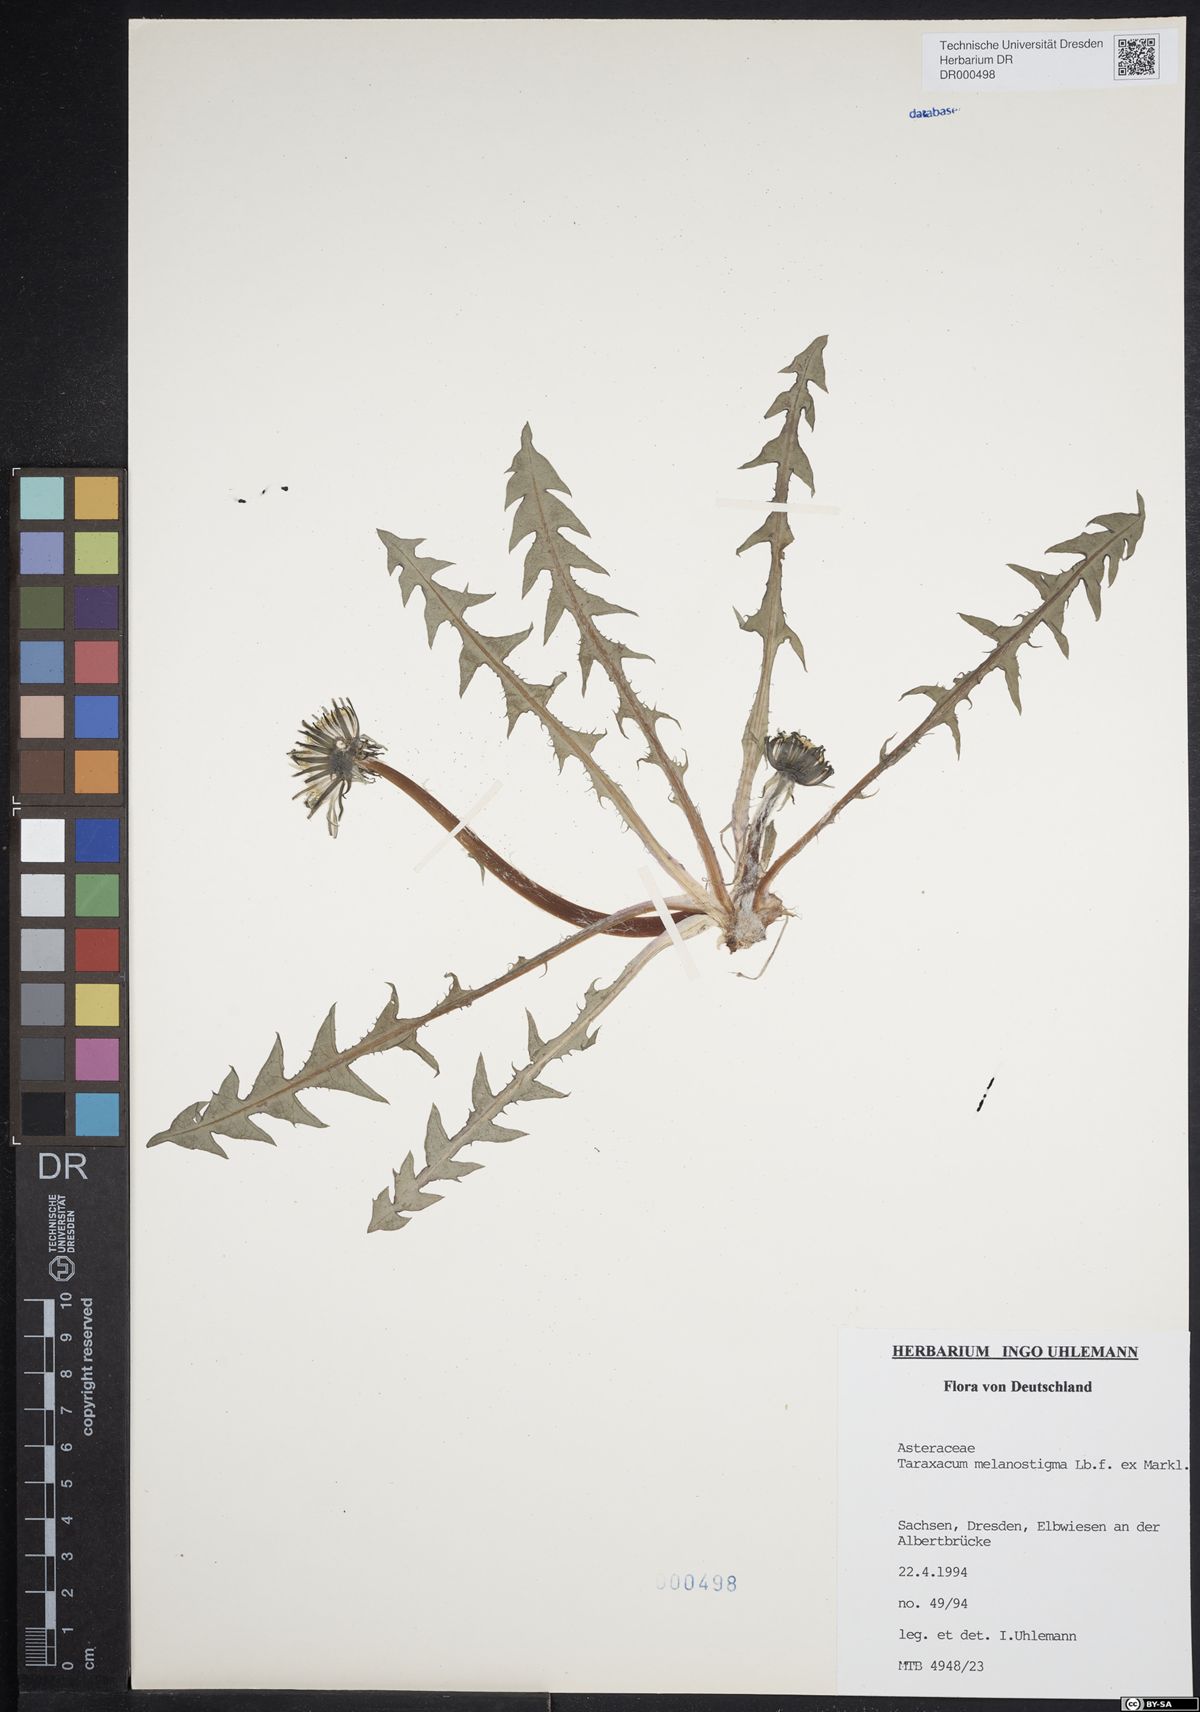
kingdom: Plantae
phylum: Tracheophyta
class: Magnoliopsida
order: Asterales
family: Asteraceae
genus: Taraxacum
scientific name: Taraxacum melanostigma
